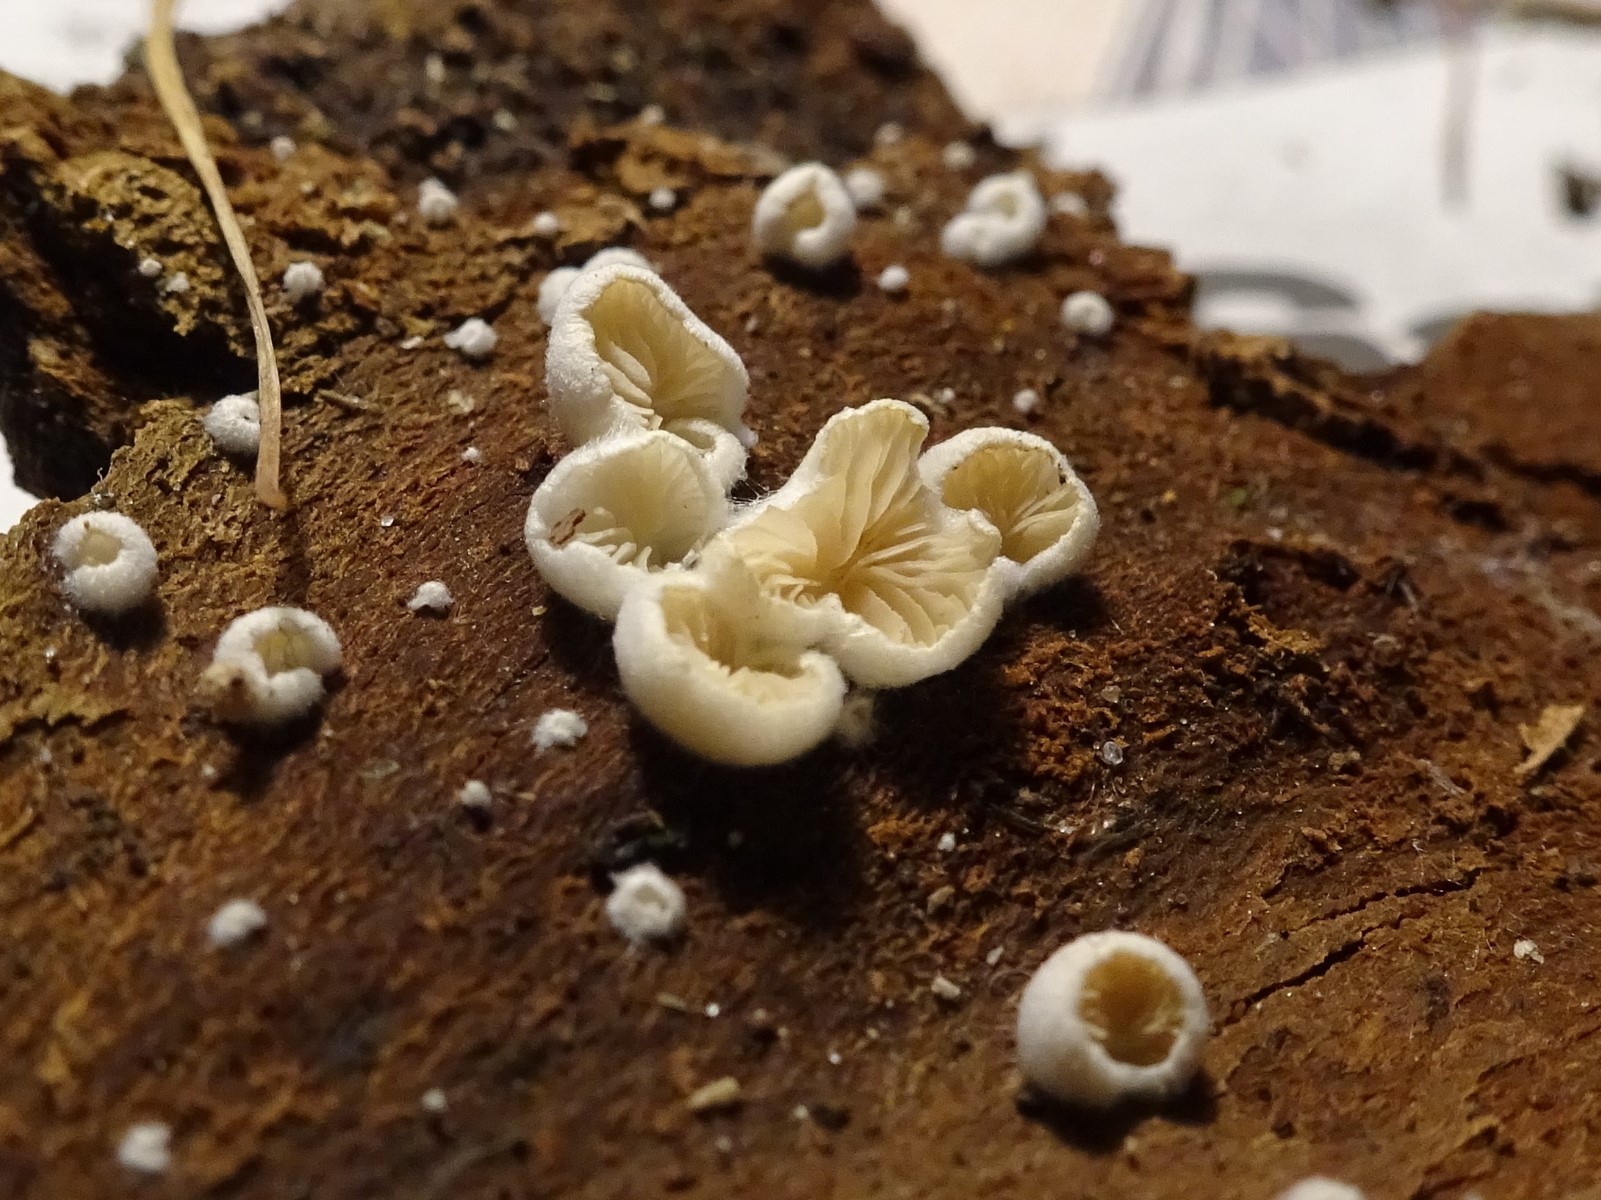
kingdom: Fungi
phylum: Basidiomycota
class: Agaricomycetes
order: Agaricales
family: Crepidotaceae
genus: Crepidotus
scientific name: Crepidotus
